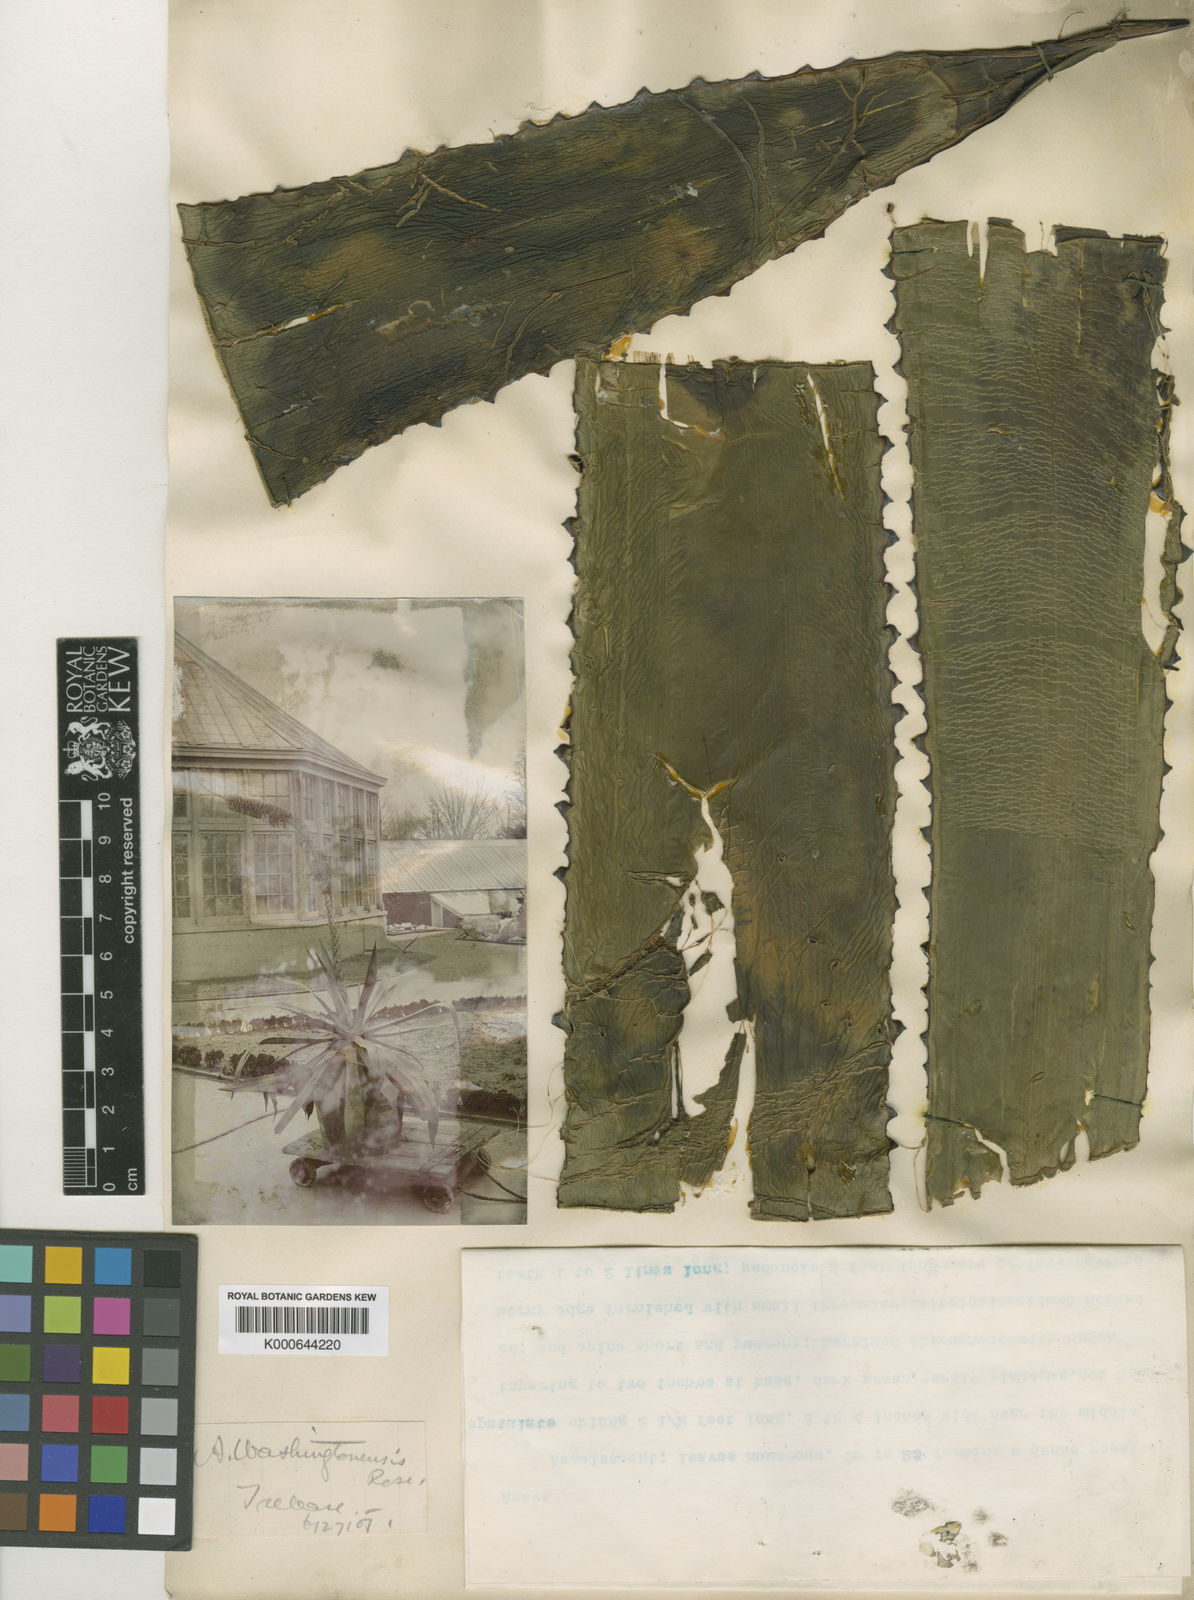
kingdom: Plantae
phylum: Tracheophyta
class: Liliopsida
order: Asparagales
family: Asparagaceae
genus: Agave
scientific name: Agave washingtonensis
